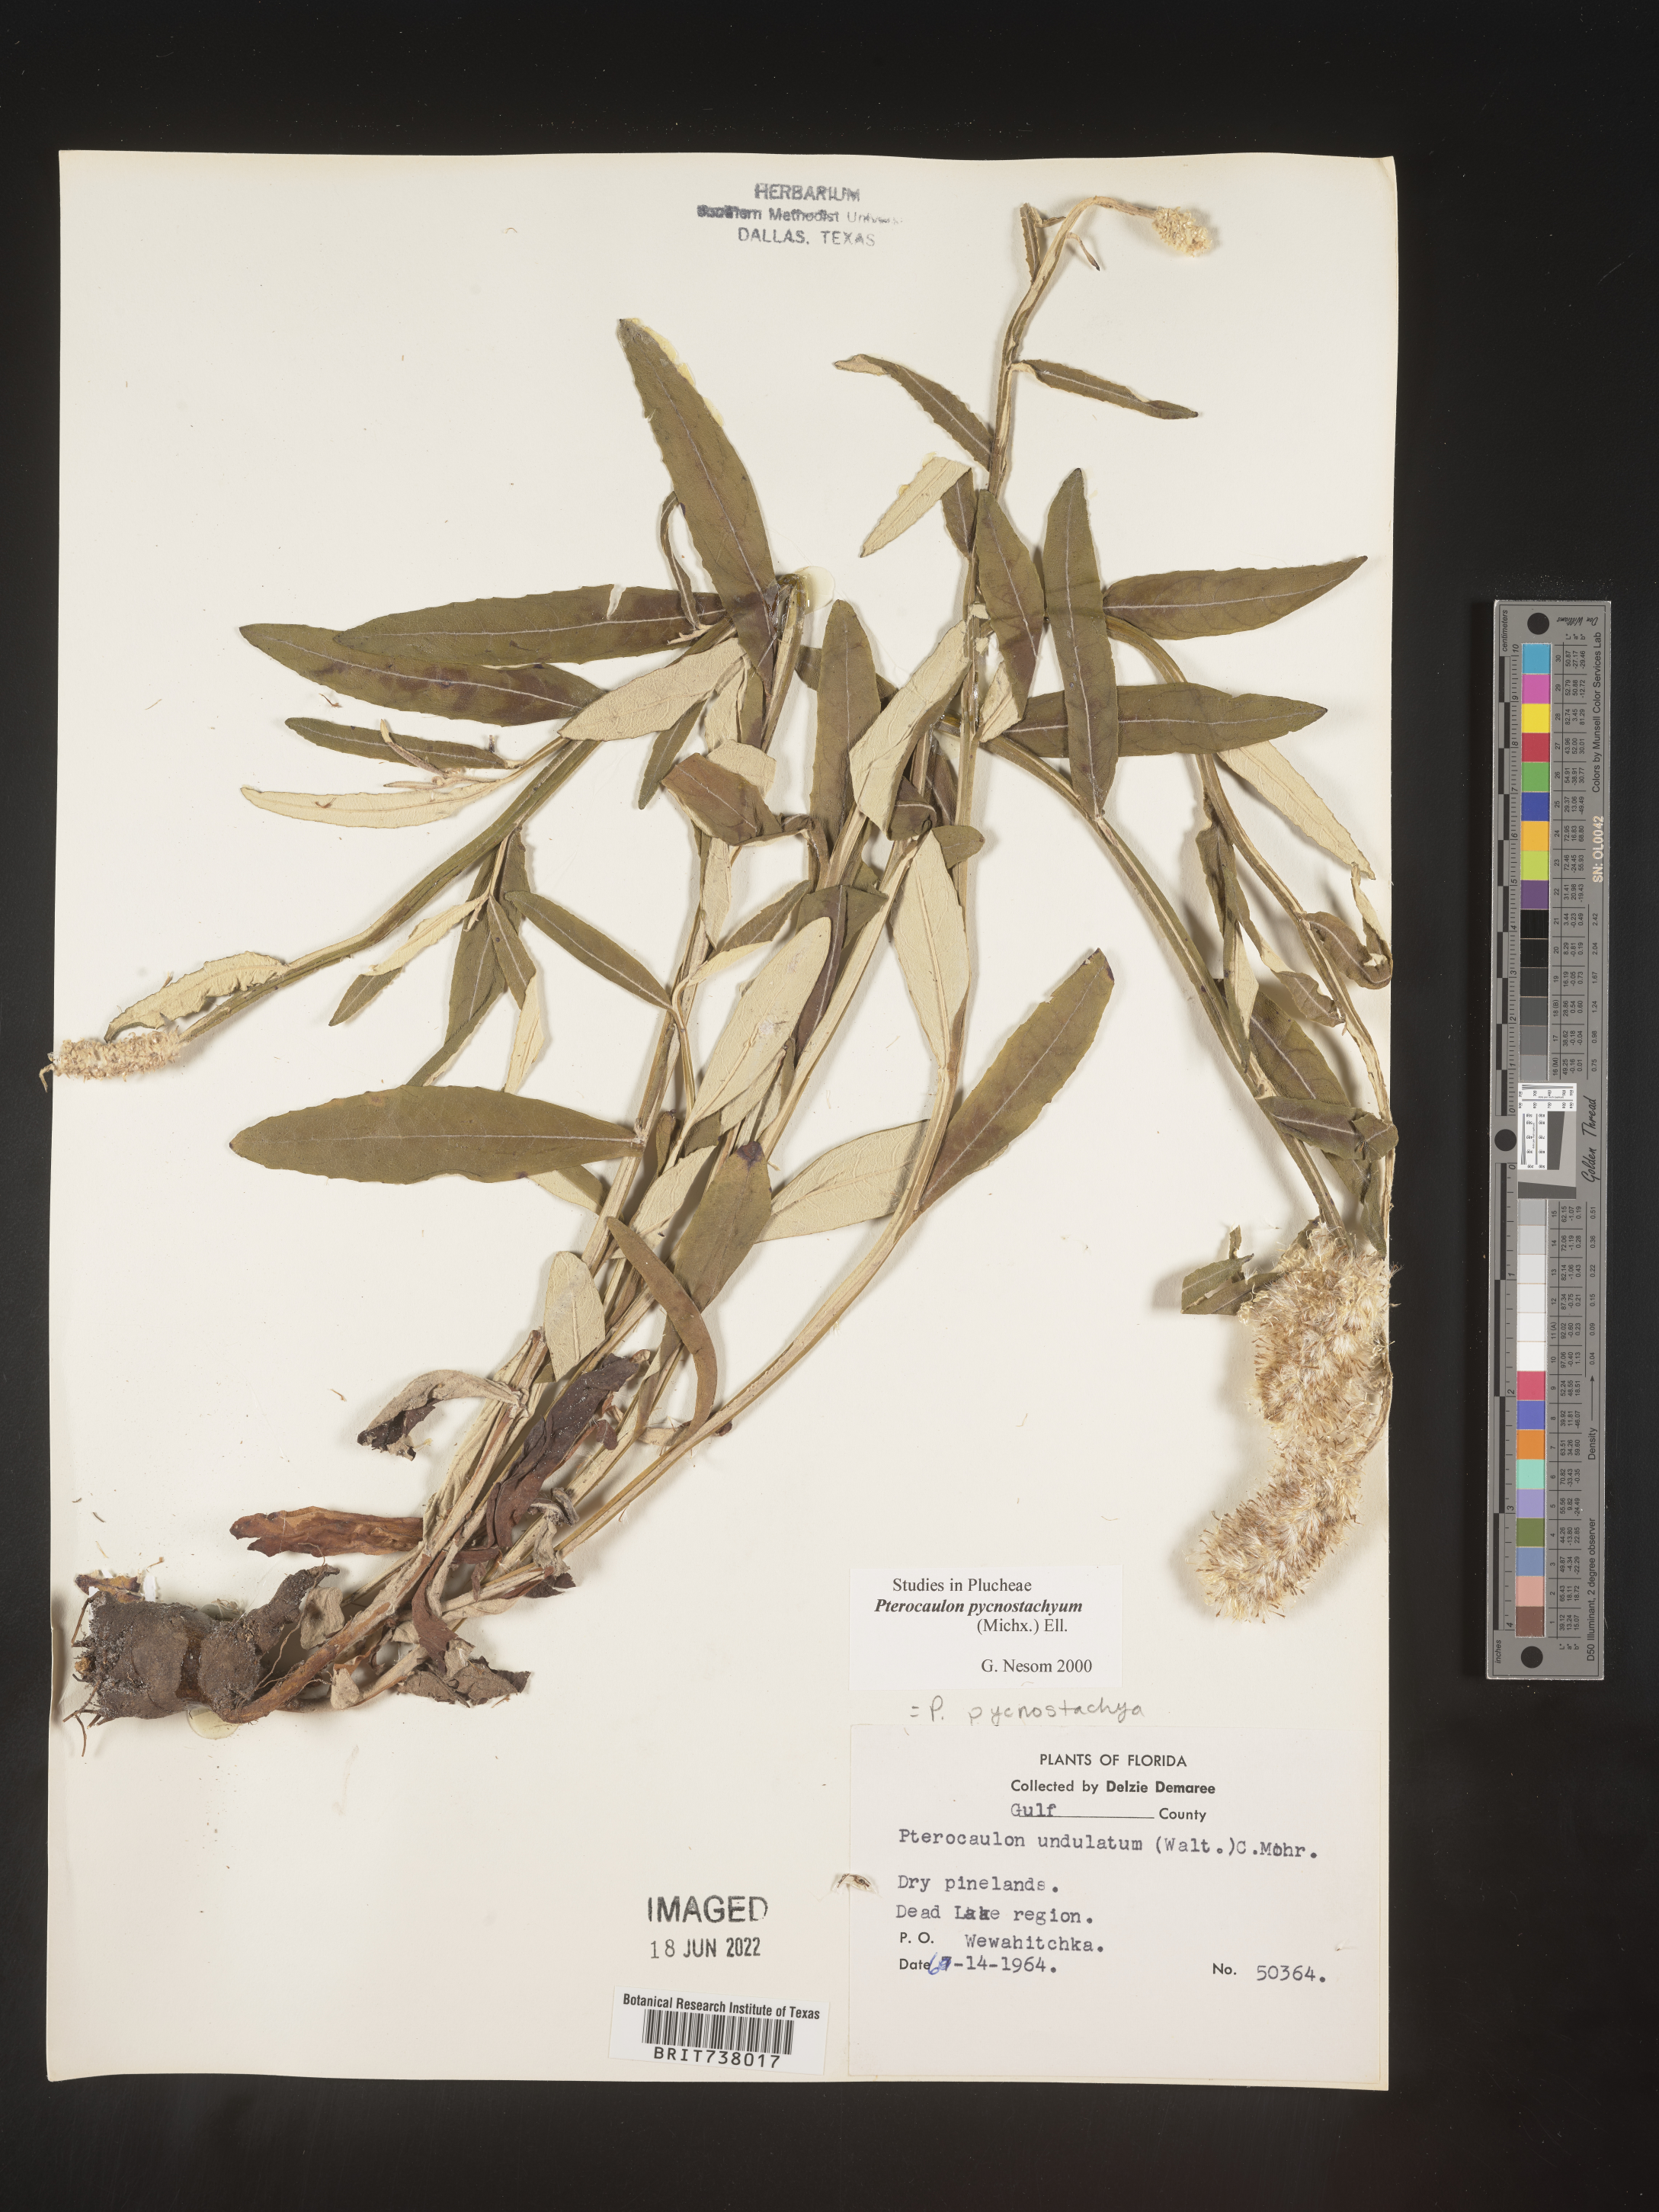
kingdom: Plantae
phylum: Tracheophyta
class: Magnoliopsida
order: Asterales
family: Asteraceae
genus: Pterocaulon
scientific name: Pterocaulon pycnostachyum
